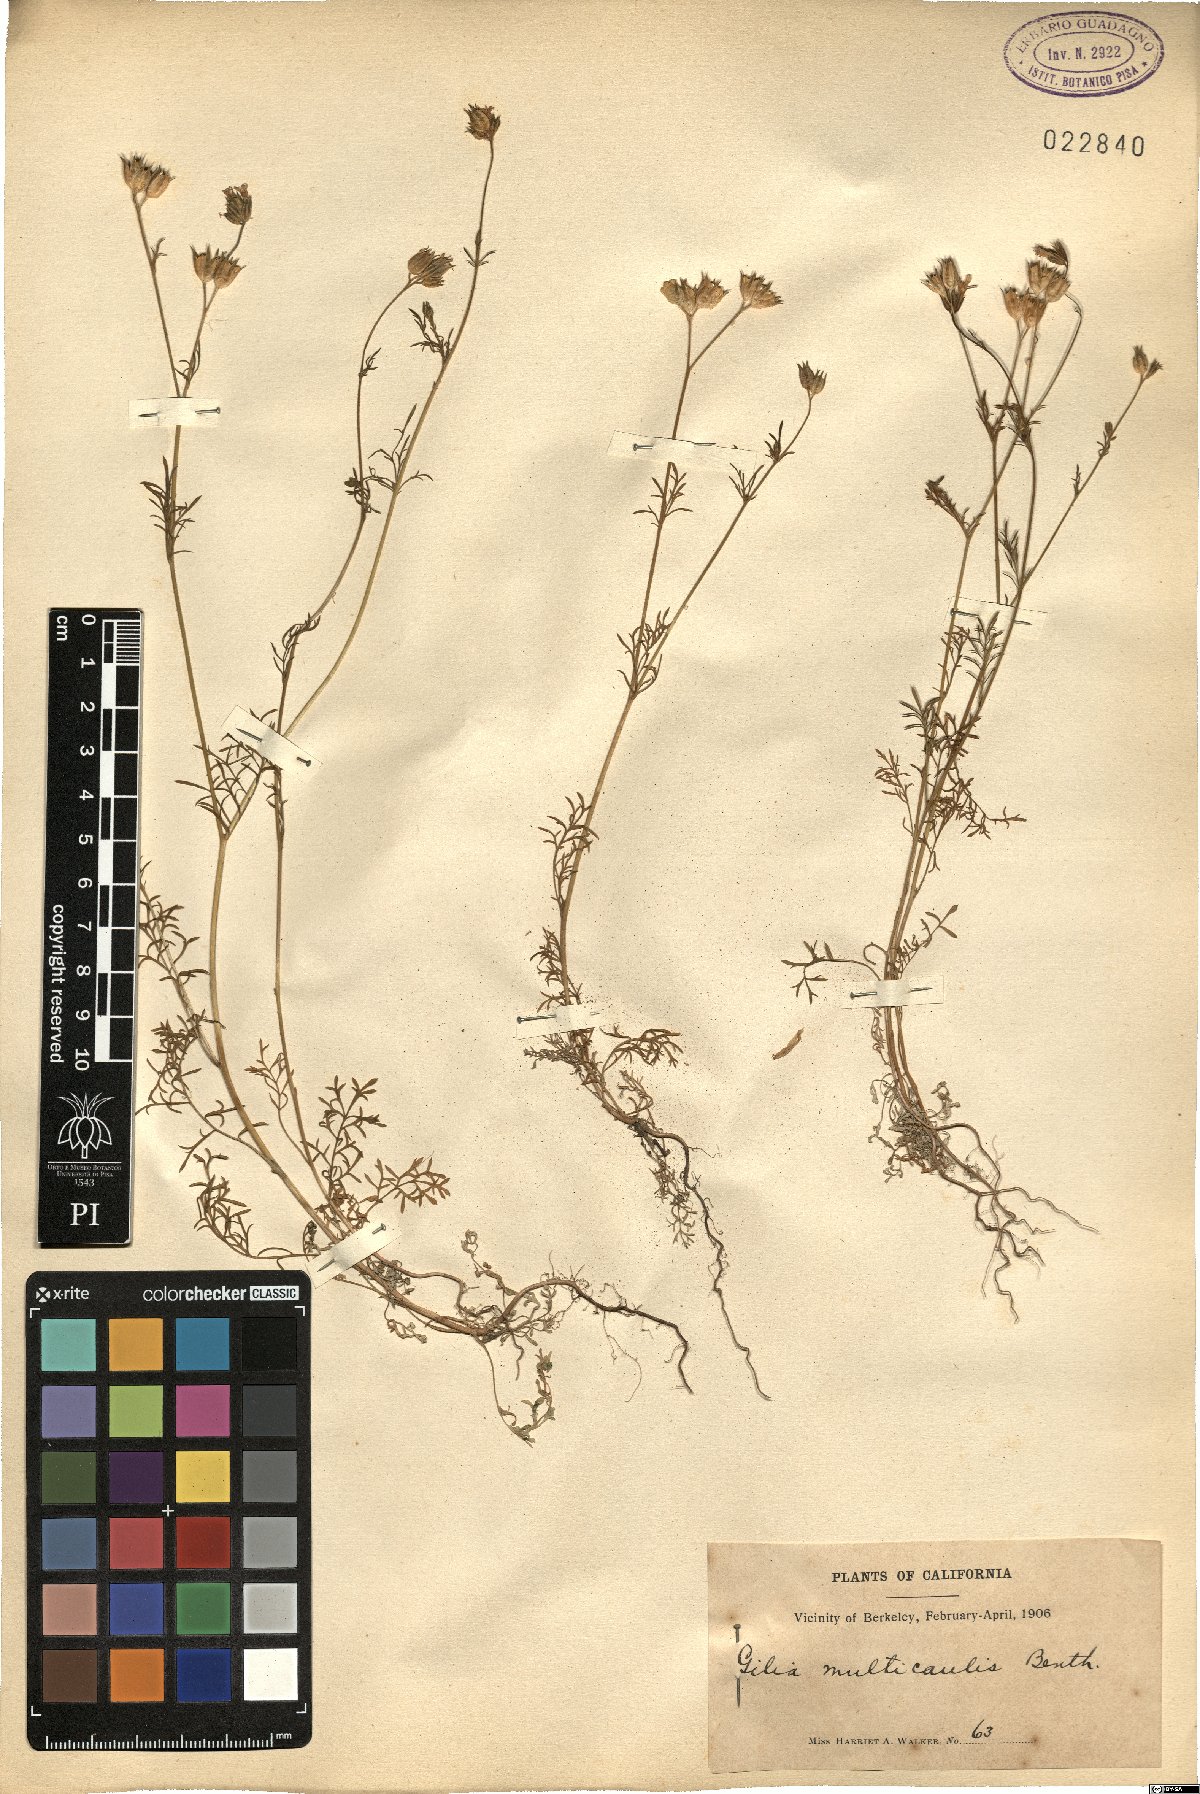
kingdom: Plantae
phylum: Tracheophyta
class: Magnoliopsida
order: Ericales
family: Polemoniaceae
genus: Gilia
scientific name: Gilia achilleifolia
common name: California gily-flower
